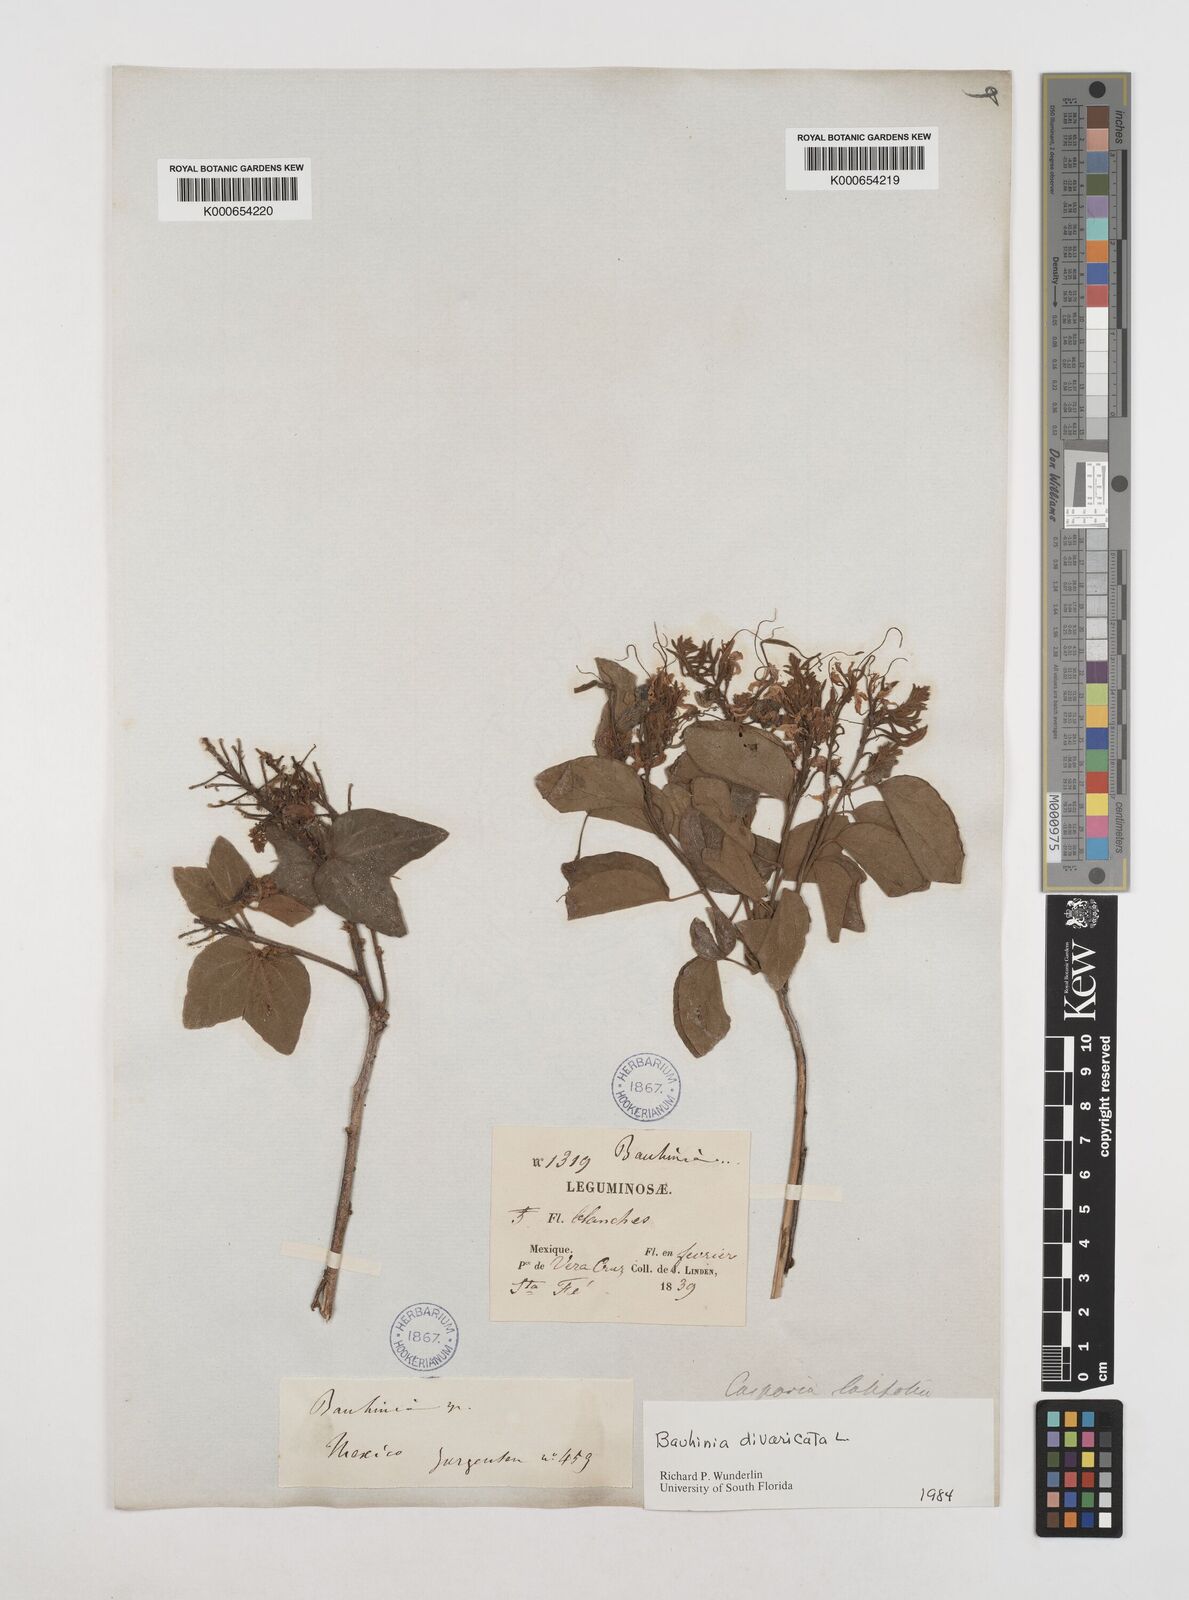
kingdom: Plantae
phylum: Tracheophyta
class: Magnoliopsida
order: Fabales
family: Fabaceae
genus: Bauhinia
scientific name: Bauhinia divaricata
